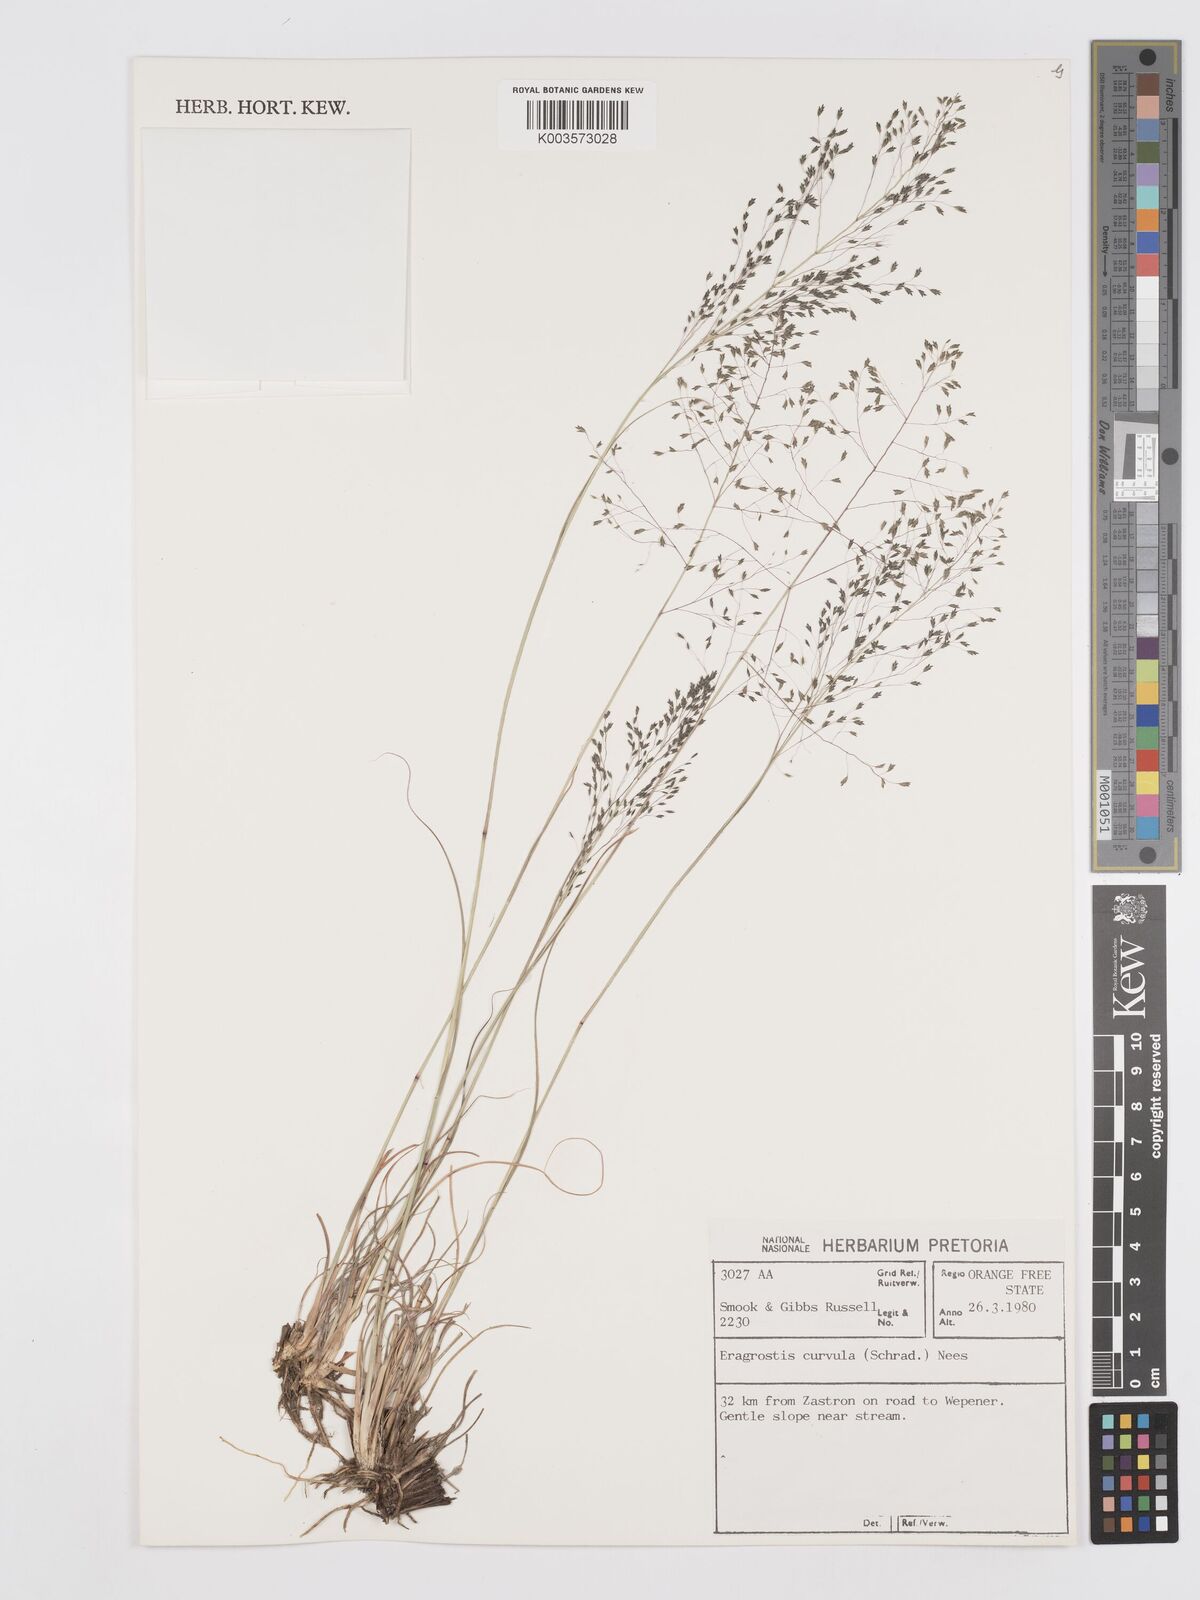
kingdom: Plantae
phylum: Tracheophyta
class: Liliopsida
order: Poales
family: Poaceae
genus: Eragrostis
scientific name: Eragrostis curvula
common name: African love-grass
